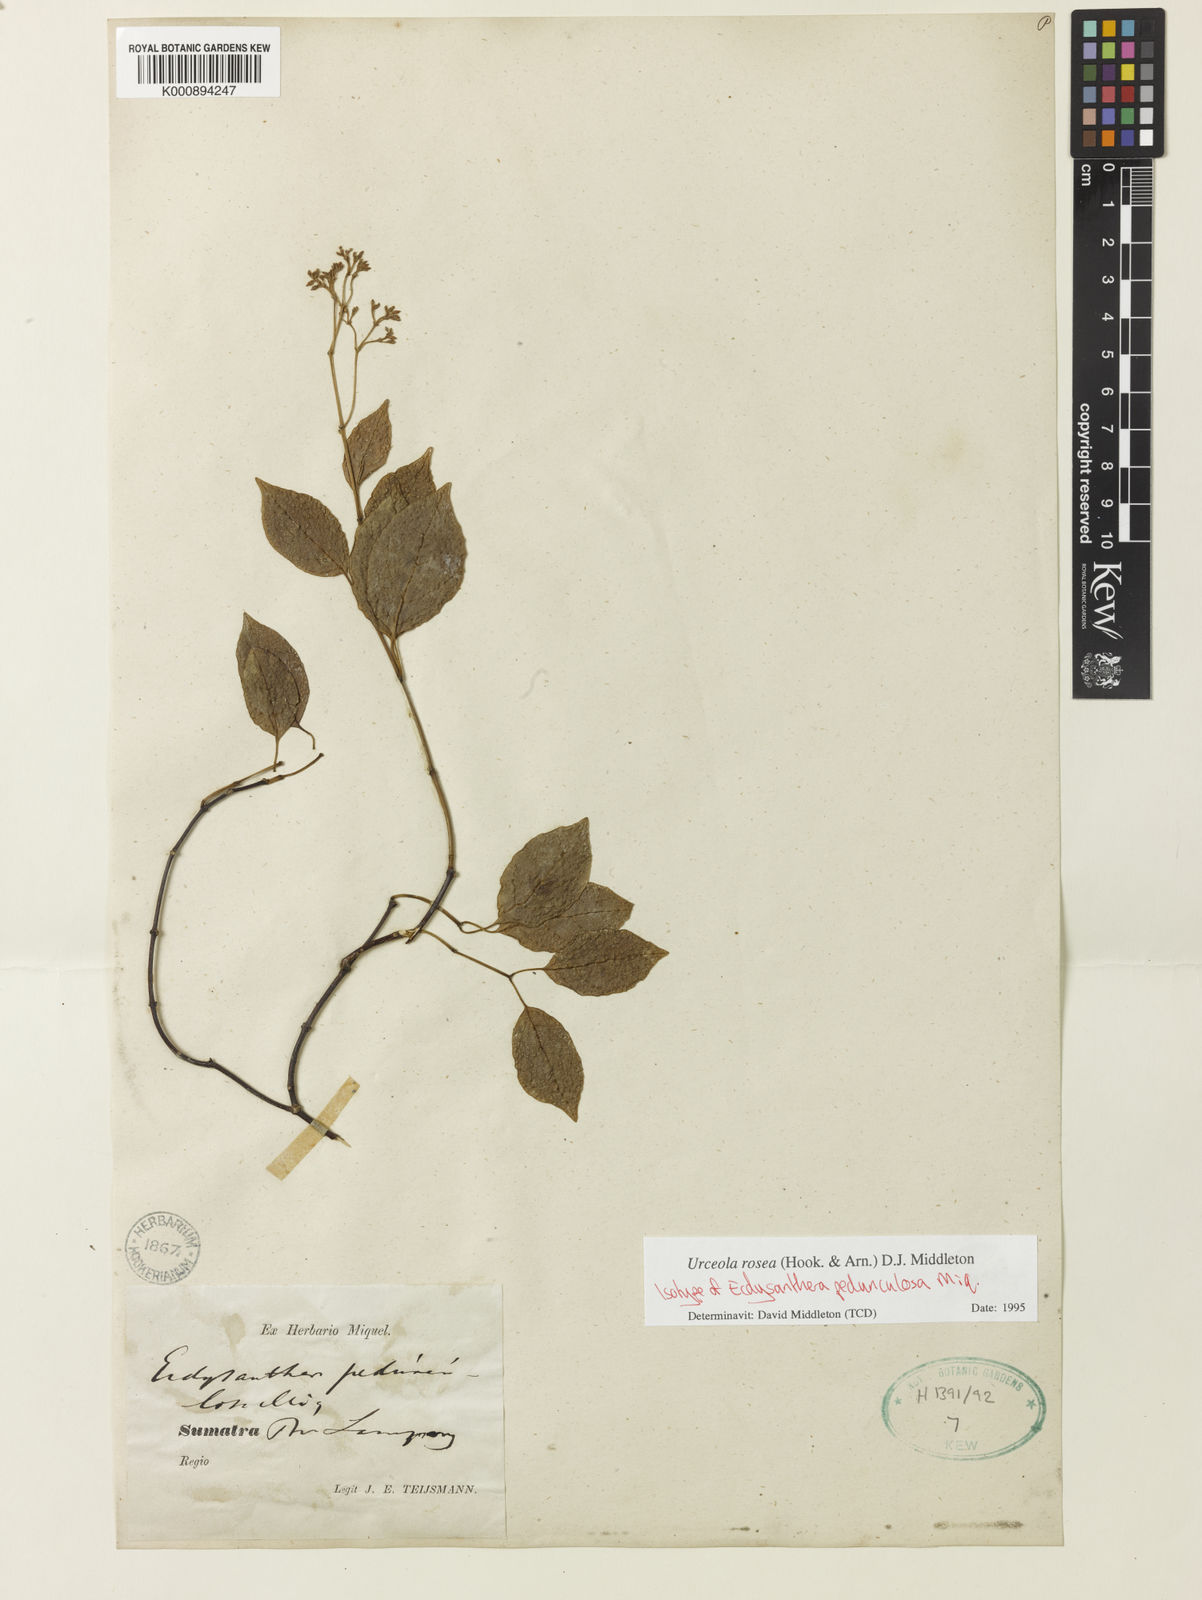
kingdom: Plantae
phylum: Tracheophyta
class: Magnoliopsida
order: Gentianales
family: Apocynaceae
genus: Urceola
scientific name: Urceola rosea
